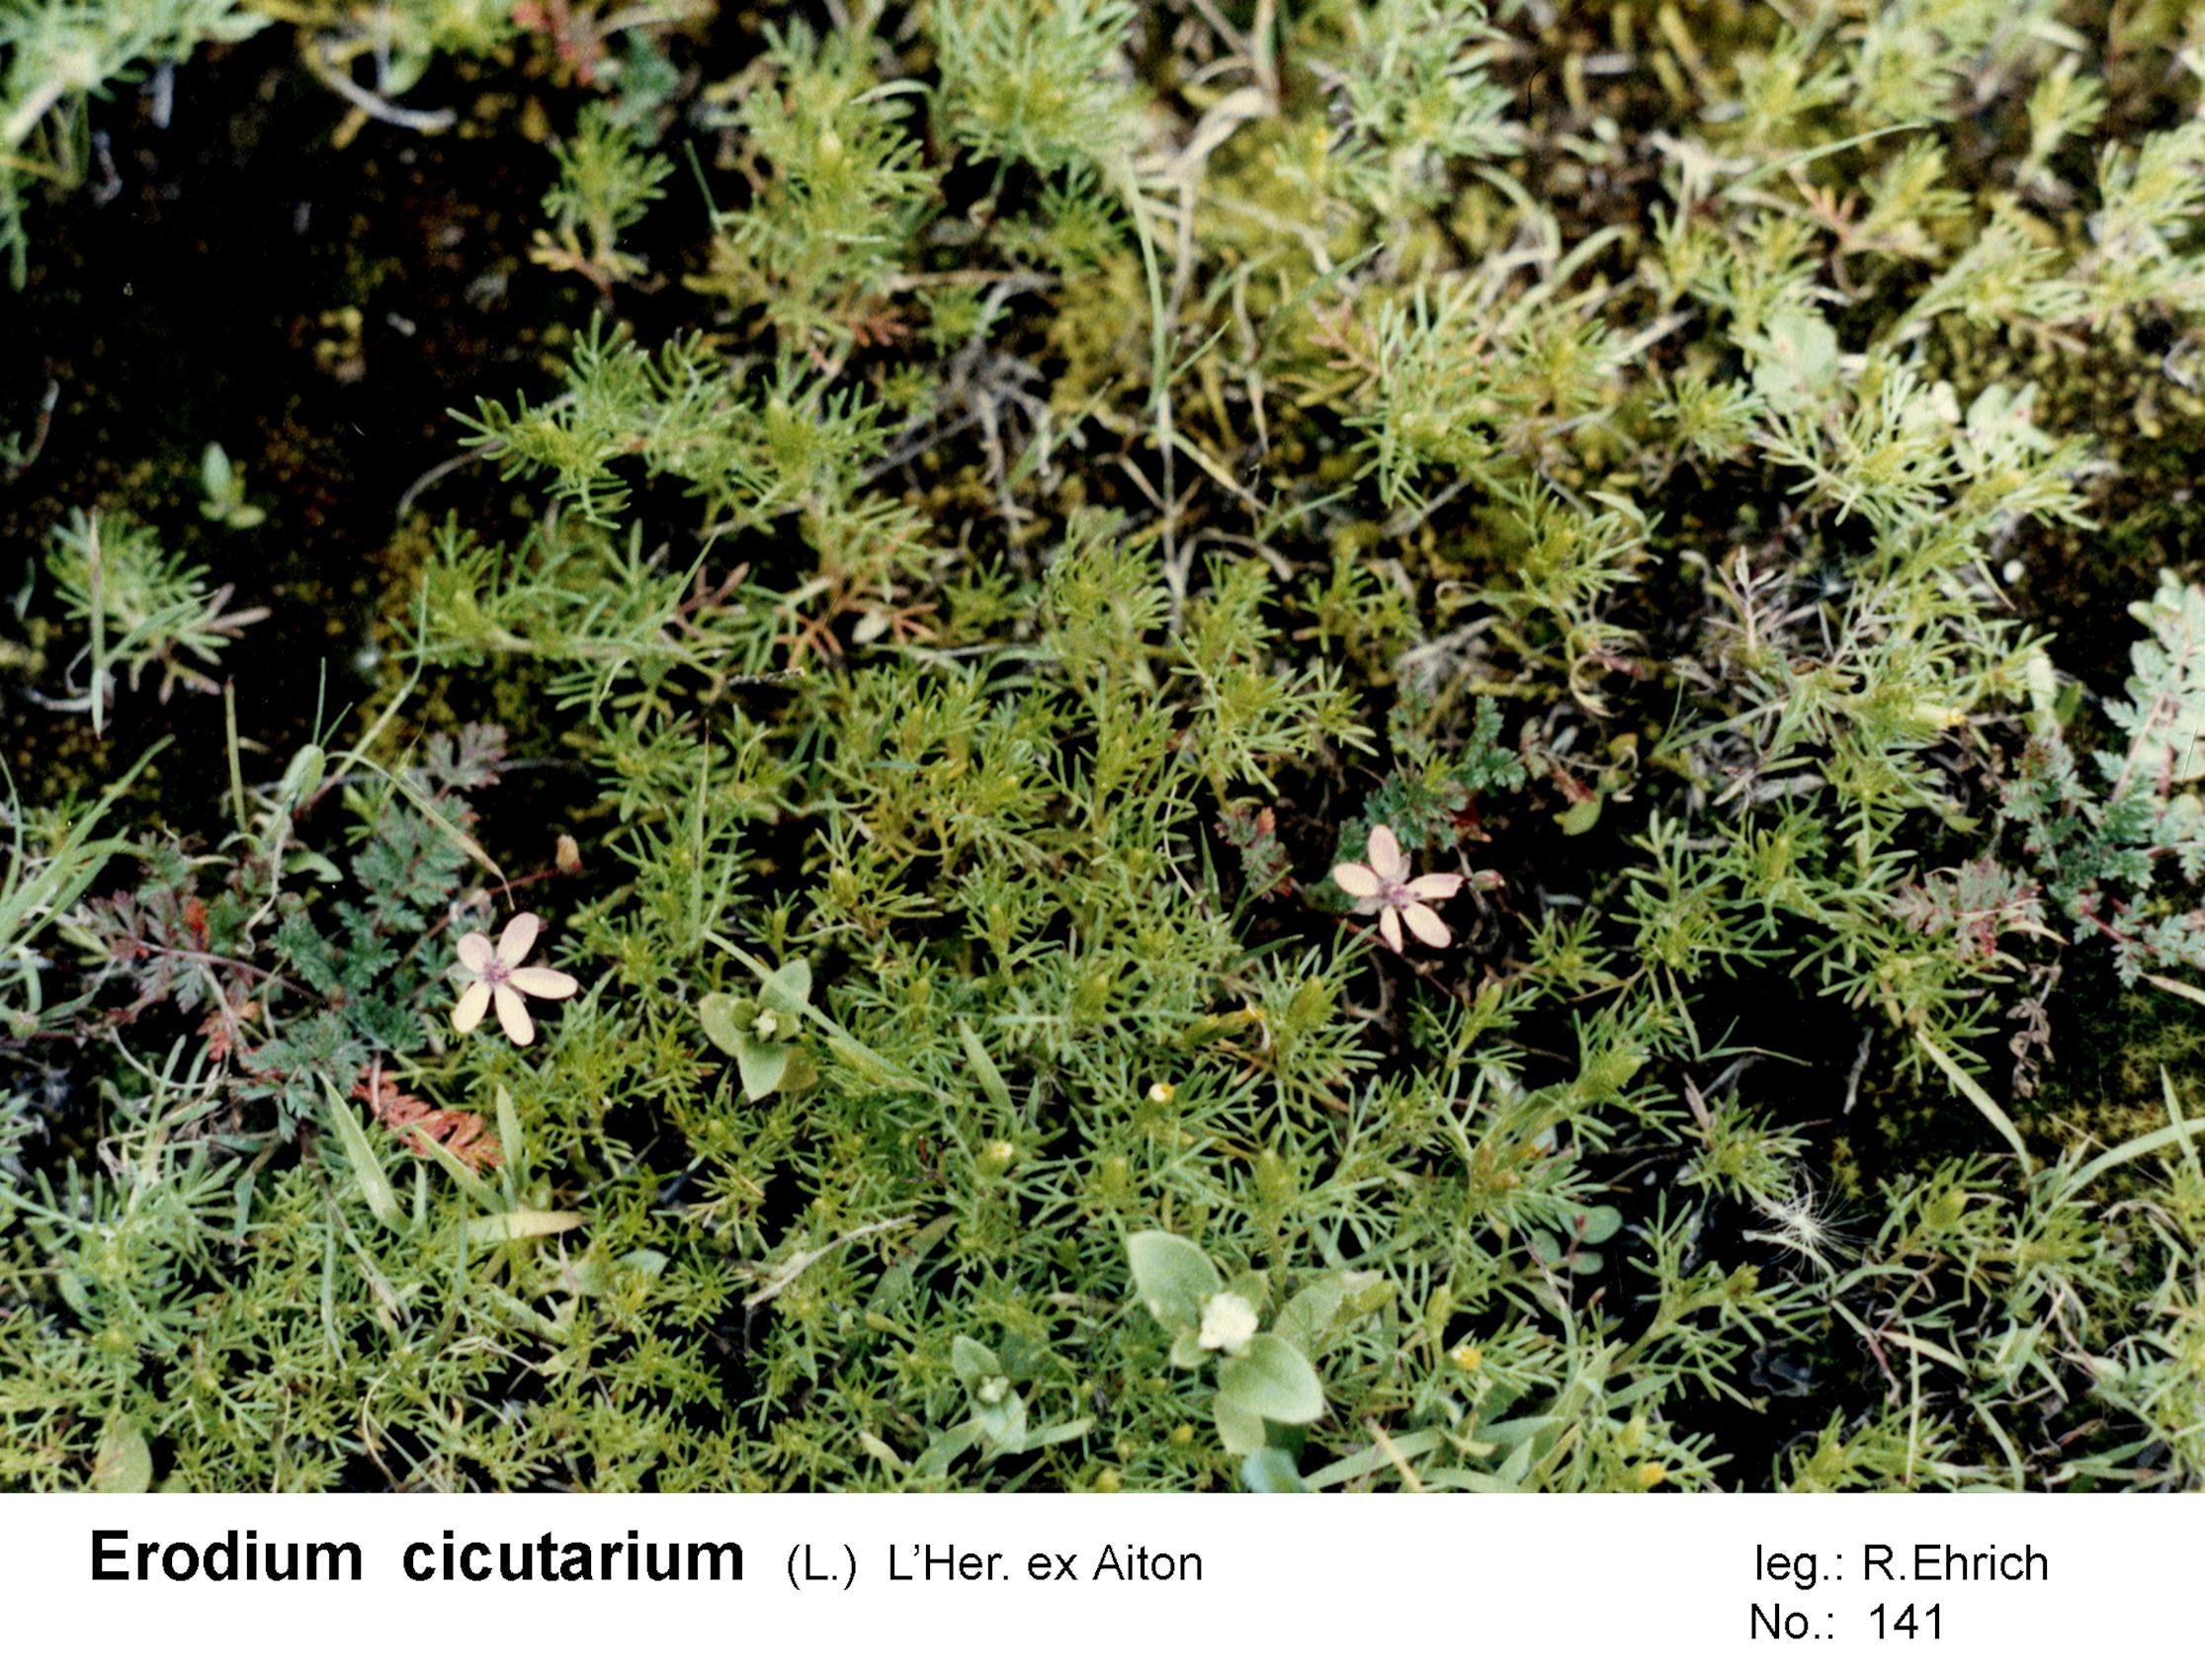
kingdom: Plantae
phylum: Tracheophyta
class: Magnoliopsida
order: Geraniales
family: Geraniaceae
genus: Erodium
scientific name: Erodium cicutarium
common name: Common stork's-bill
